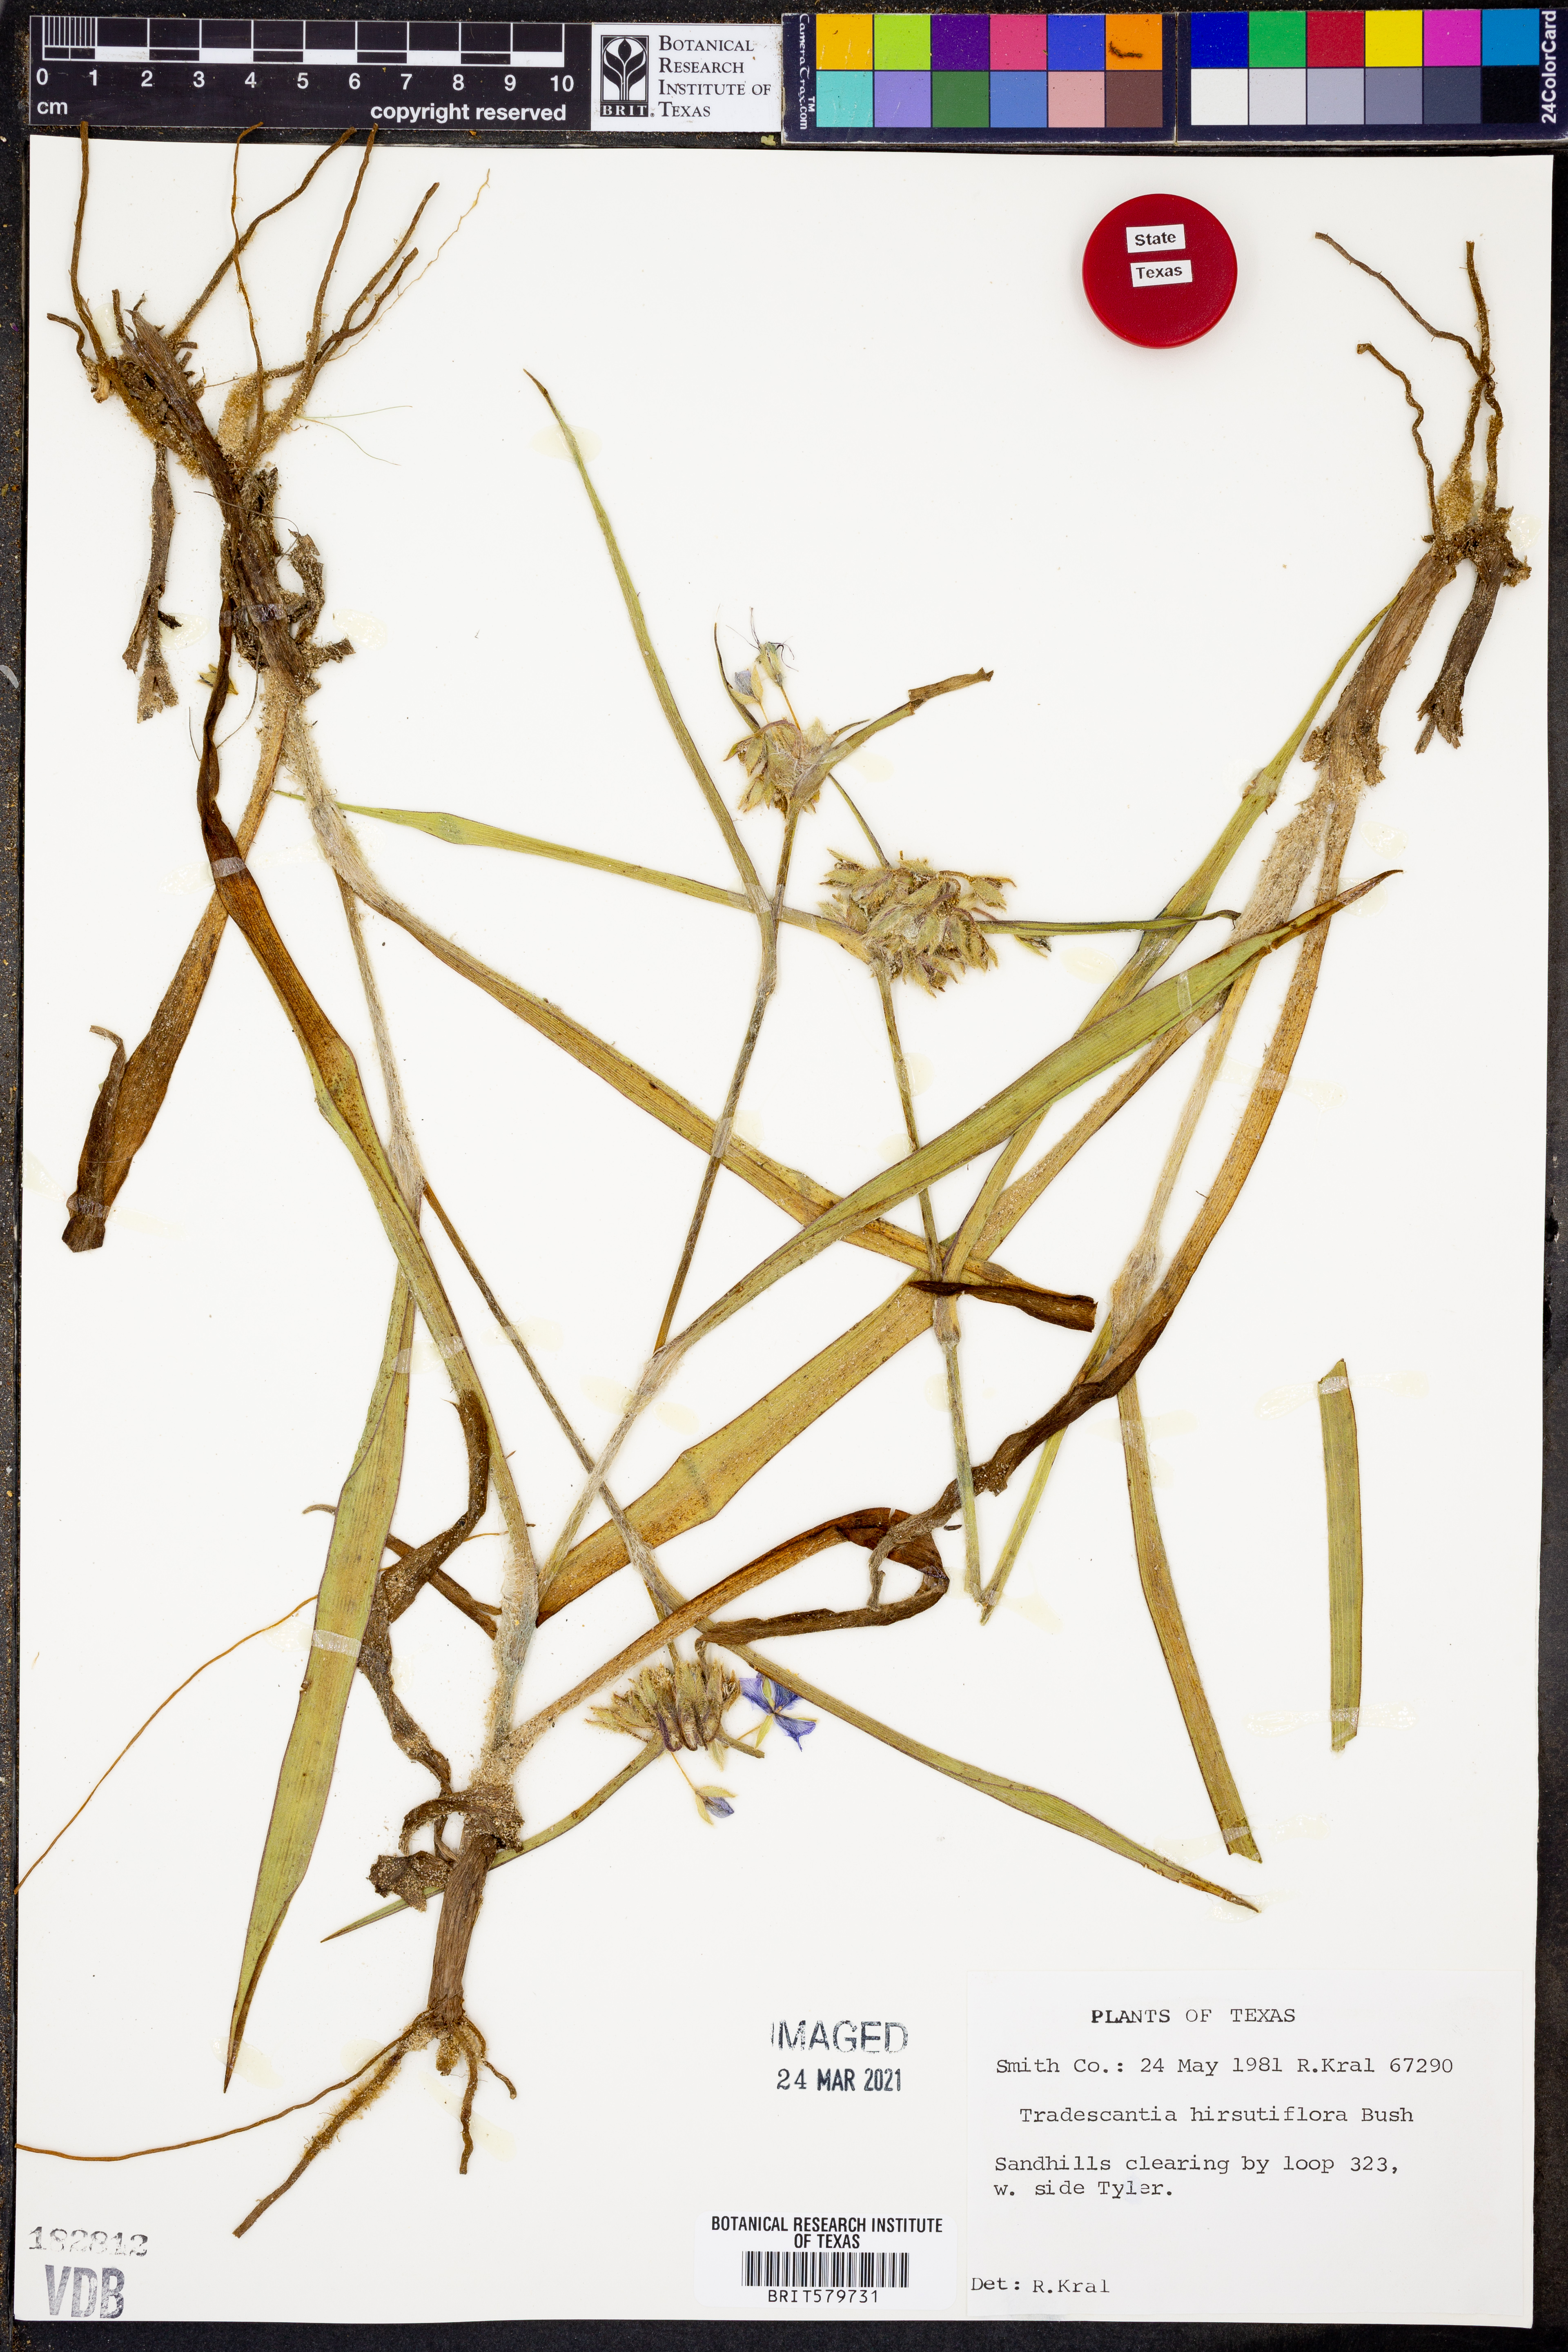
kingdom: Plantae
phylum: Tracheophyta
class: Liliopsida
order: Commelinales
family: Commelinaceae
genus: Tradescantia
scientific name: Tradescantia hirsutiflora
